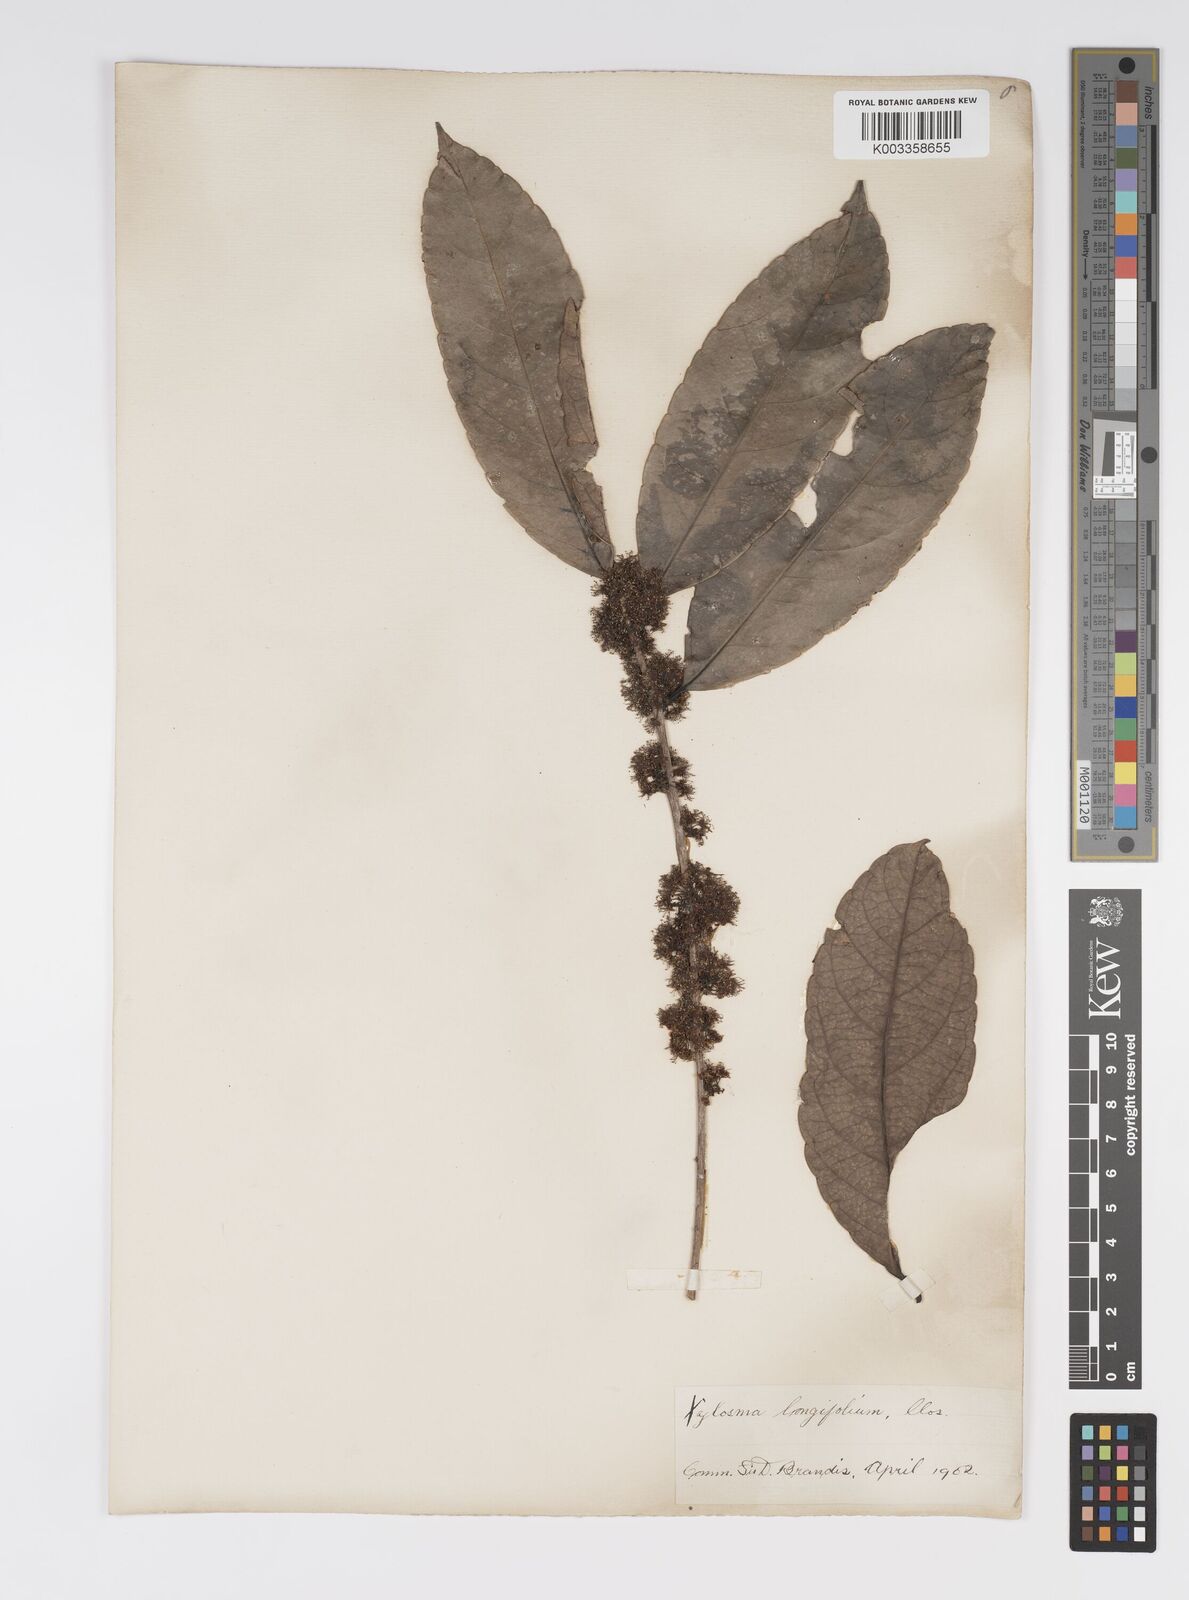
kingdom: Plantae
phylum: Tracheophyta
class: Magnoliopsida
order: Malpighiales
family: Salicaceae
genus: Xylosma
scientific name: Xylosma longifolia
